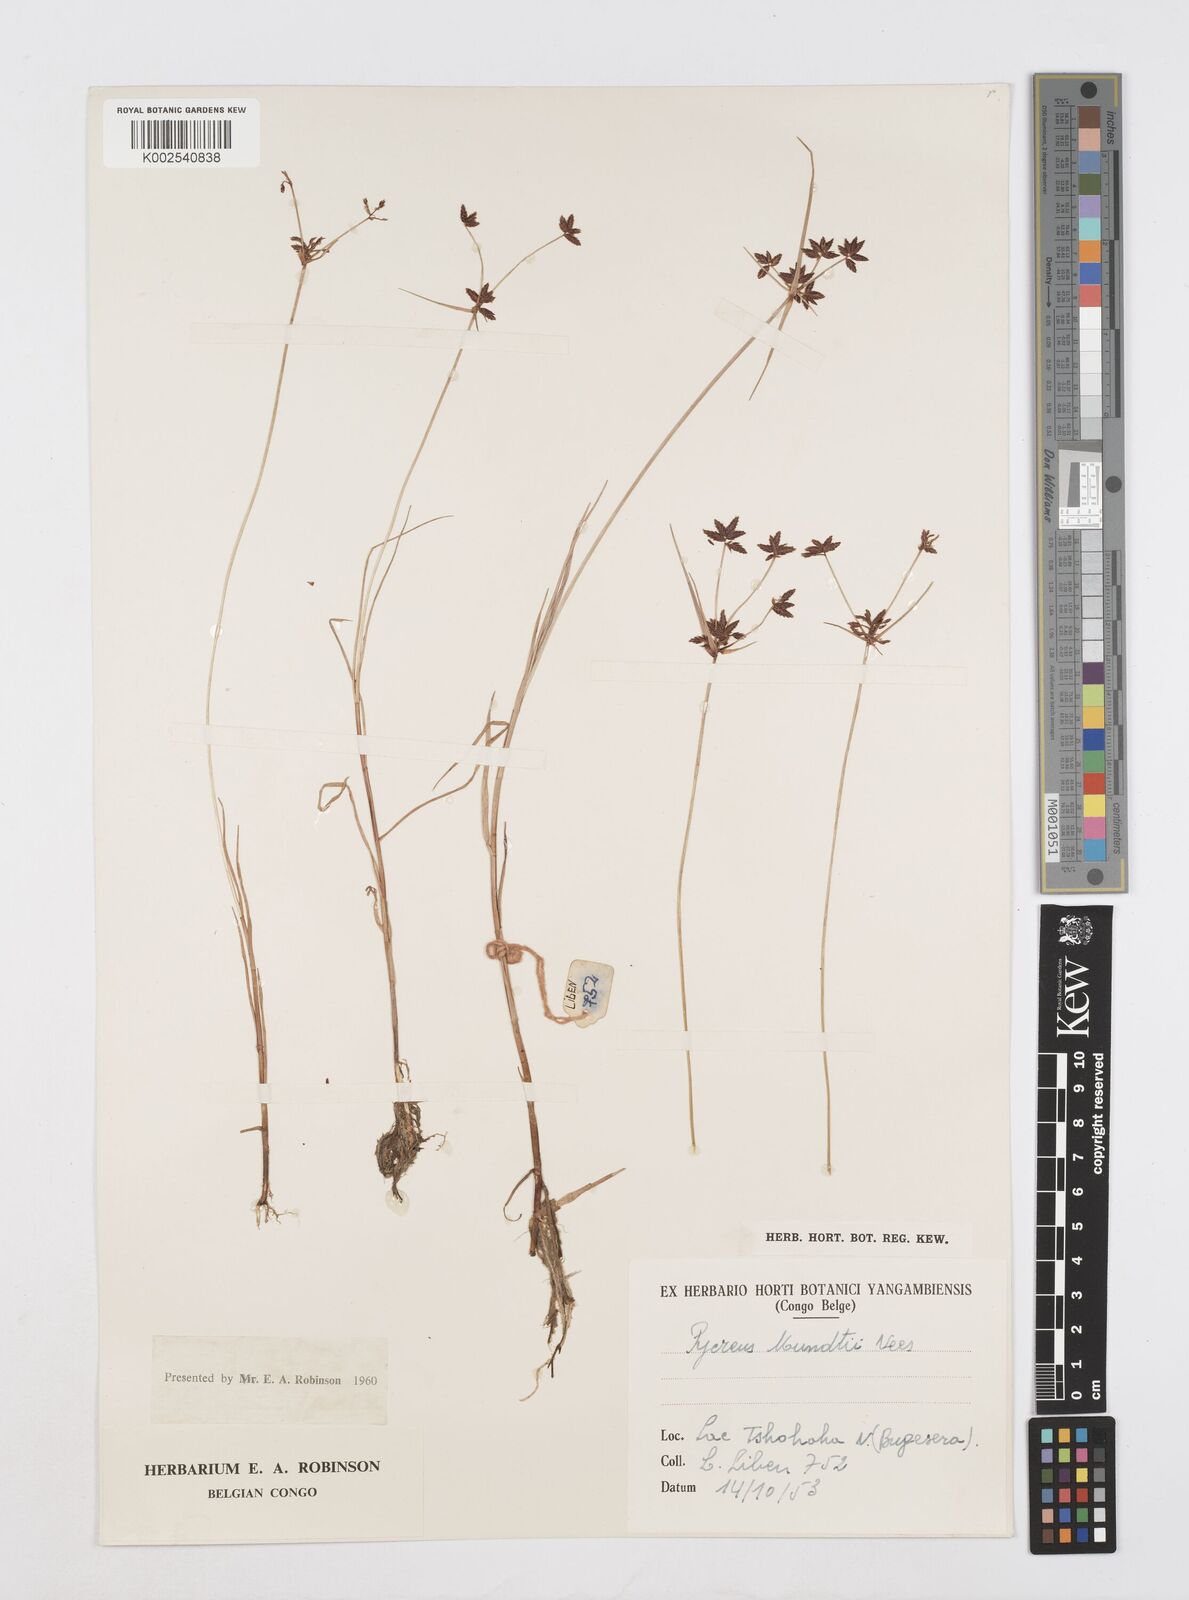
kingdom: Plantae
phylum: Tracheophyta
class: Liliopsida
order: Poales
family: Cyperaceae
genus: Cyperus
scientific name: Cyperus mundii
